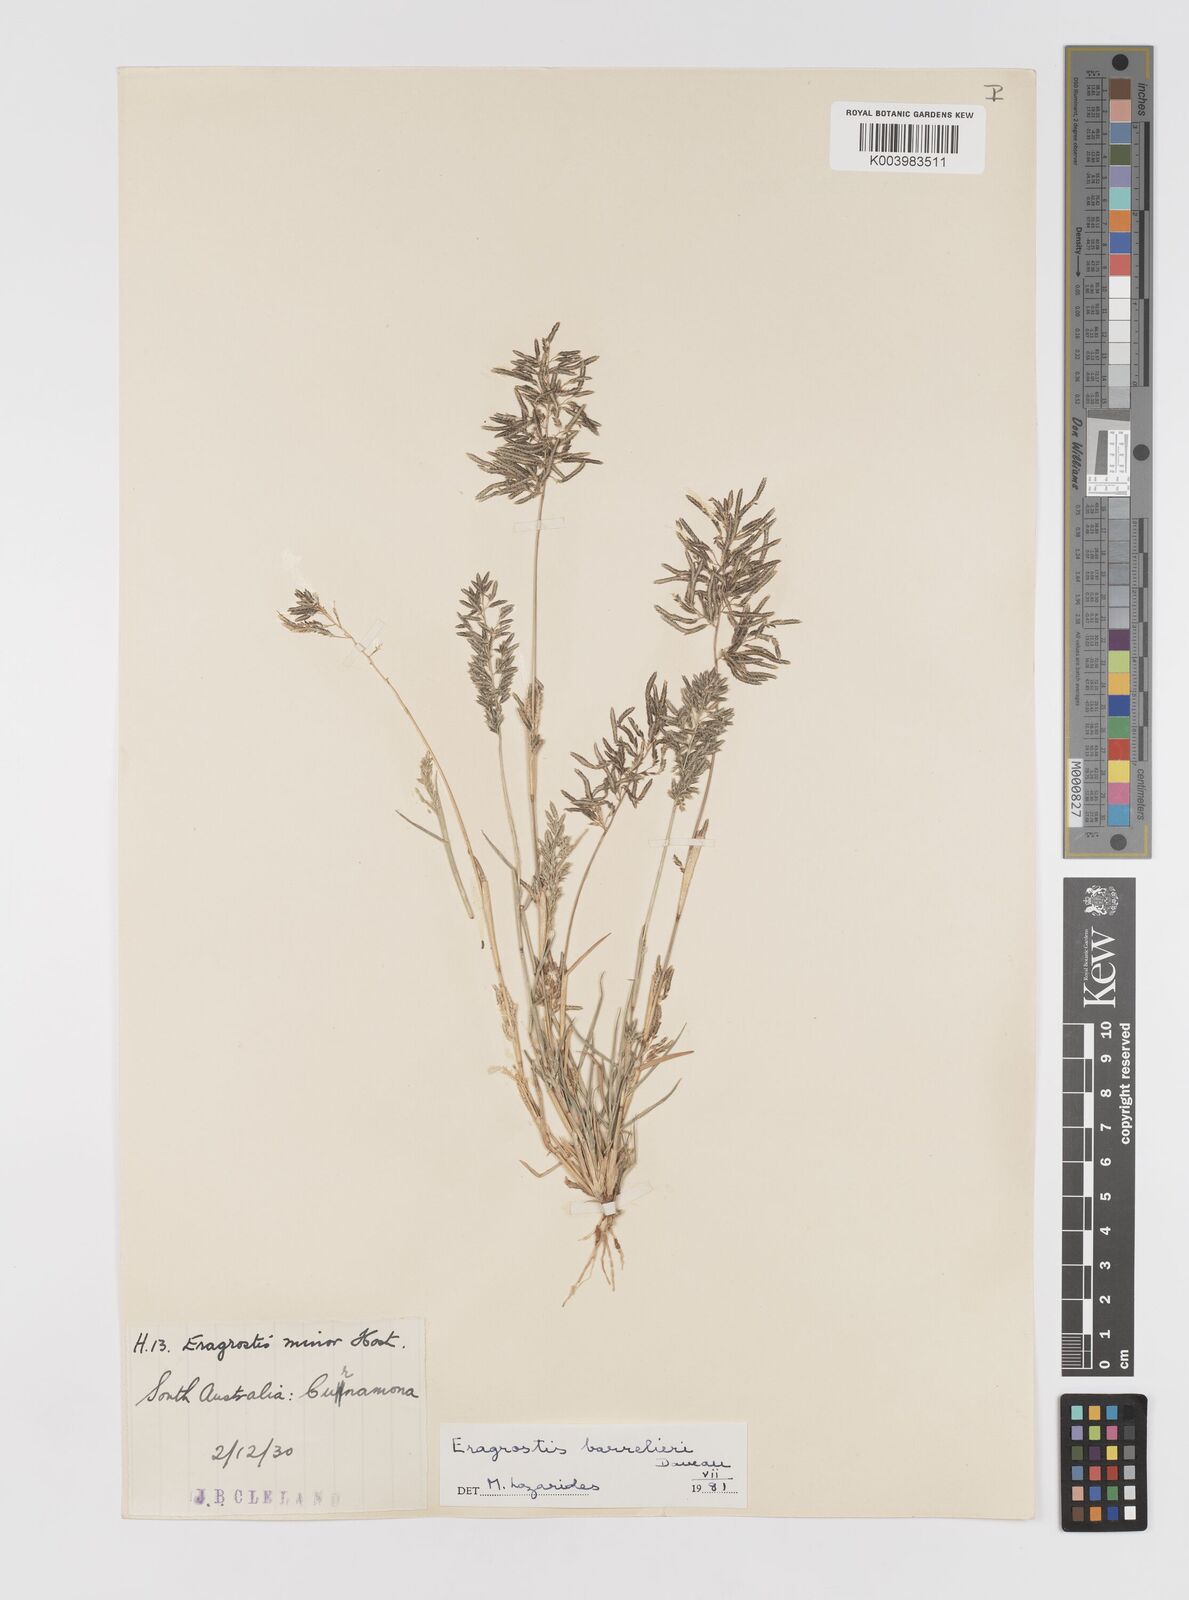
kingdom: Plantae
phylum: Tracheophyta
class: Liliopsida
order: Poales
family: Poaceae
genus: Eragrostis
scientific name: Eragrostis barrelieri
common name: Mediterranean lovegrass
